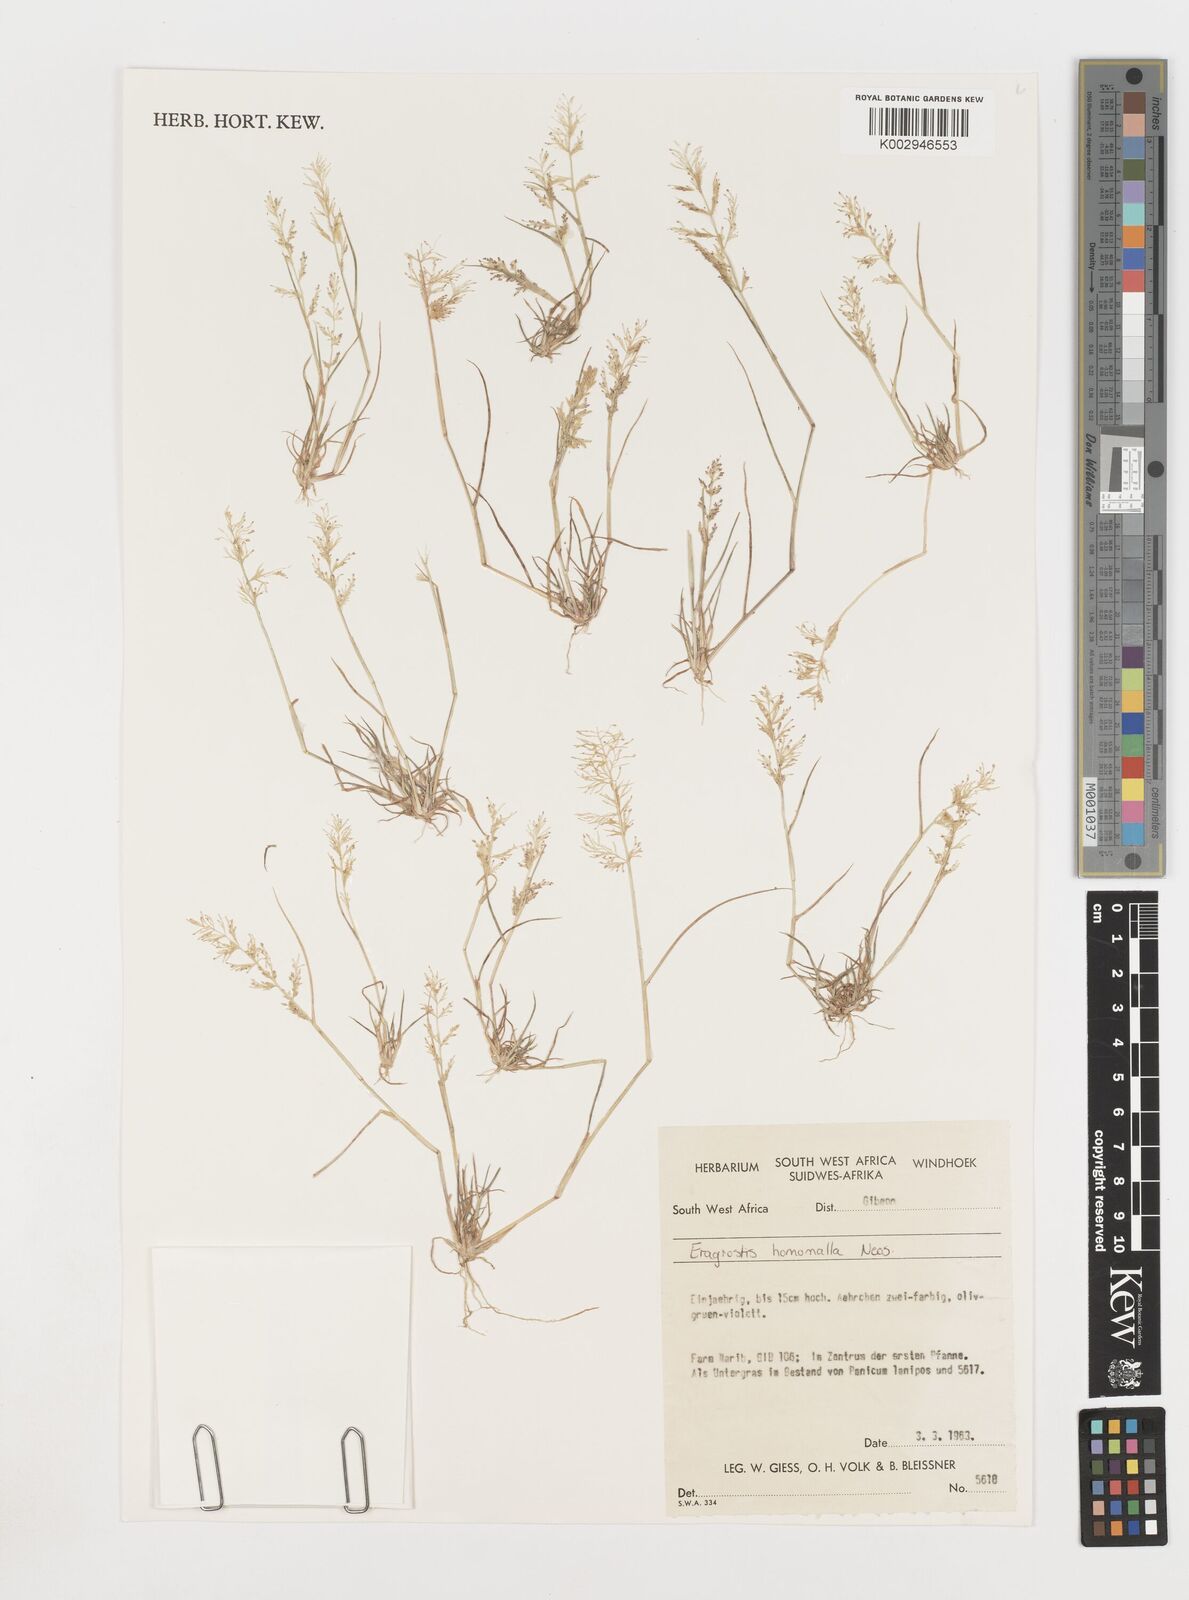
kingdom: Plantae
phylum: Tracheophyta
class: Liliopsida
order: Poales
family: Poaceae
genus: Eragrostis
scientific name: Eragrostis homomalla
